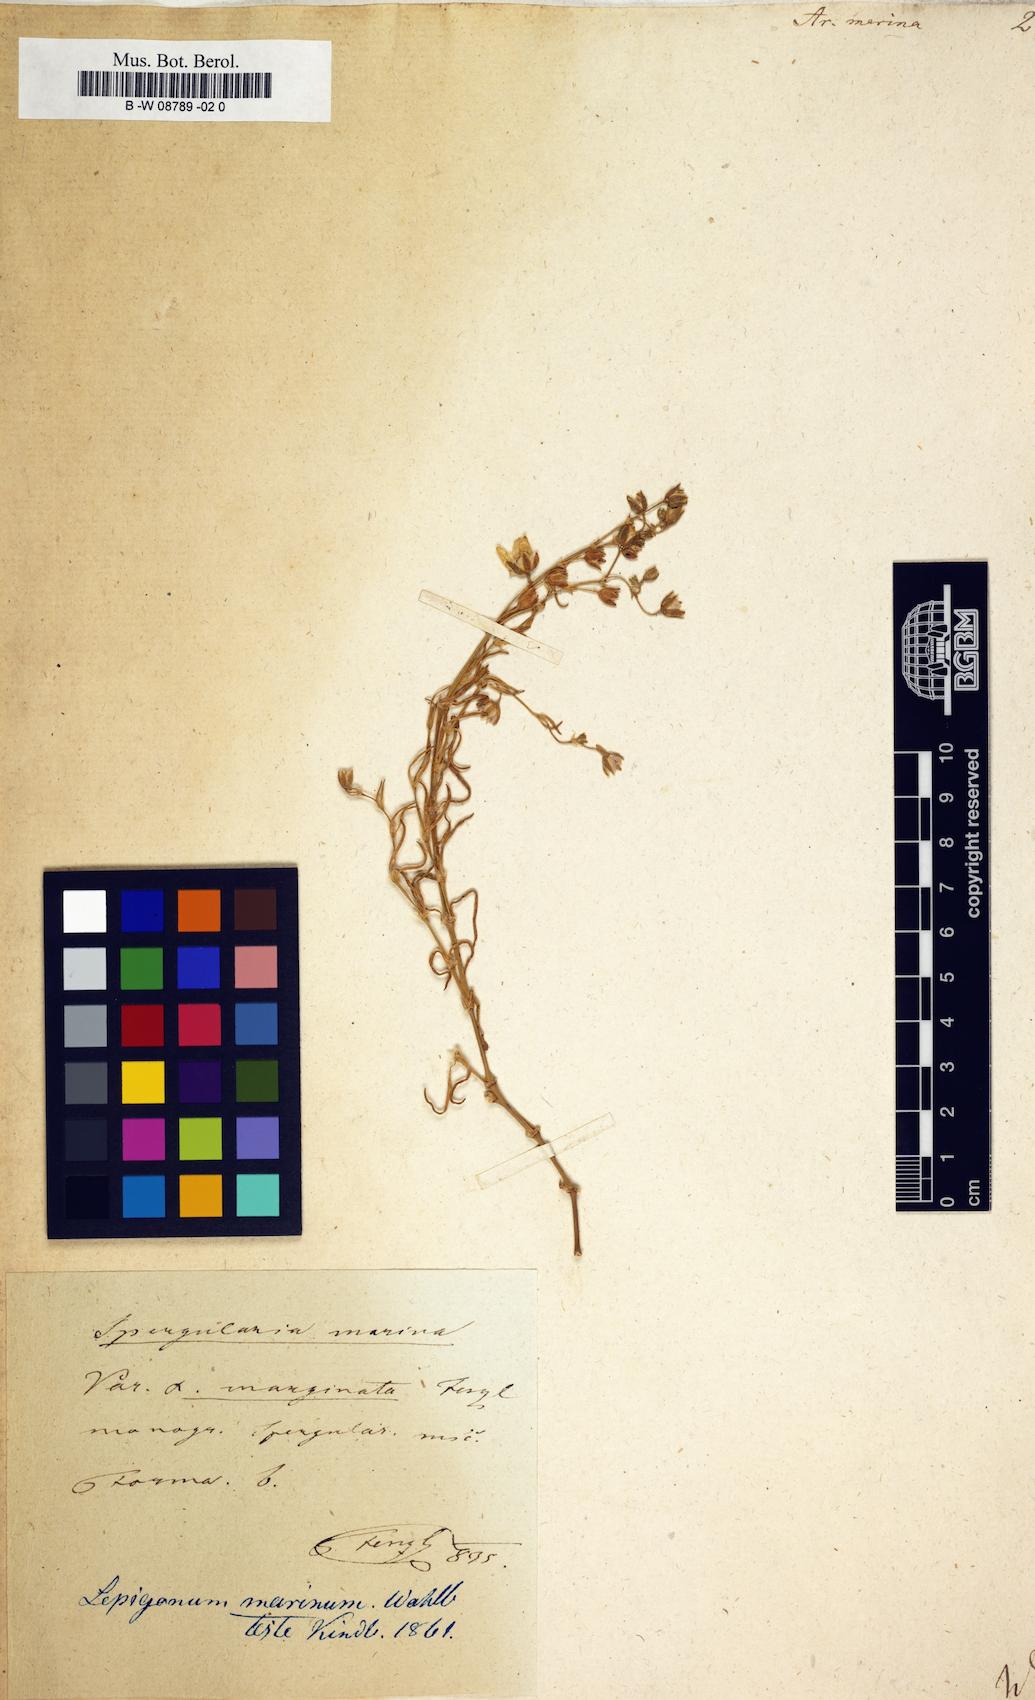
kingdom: Plantae
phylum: Tracheophyta
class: Magnoliopsida
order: Caryophyllales
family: Caryophyllaceae
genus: Arenaria
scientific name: Arenaria marina
